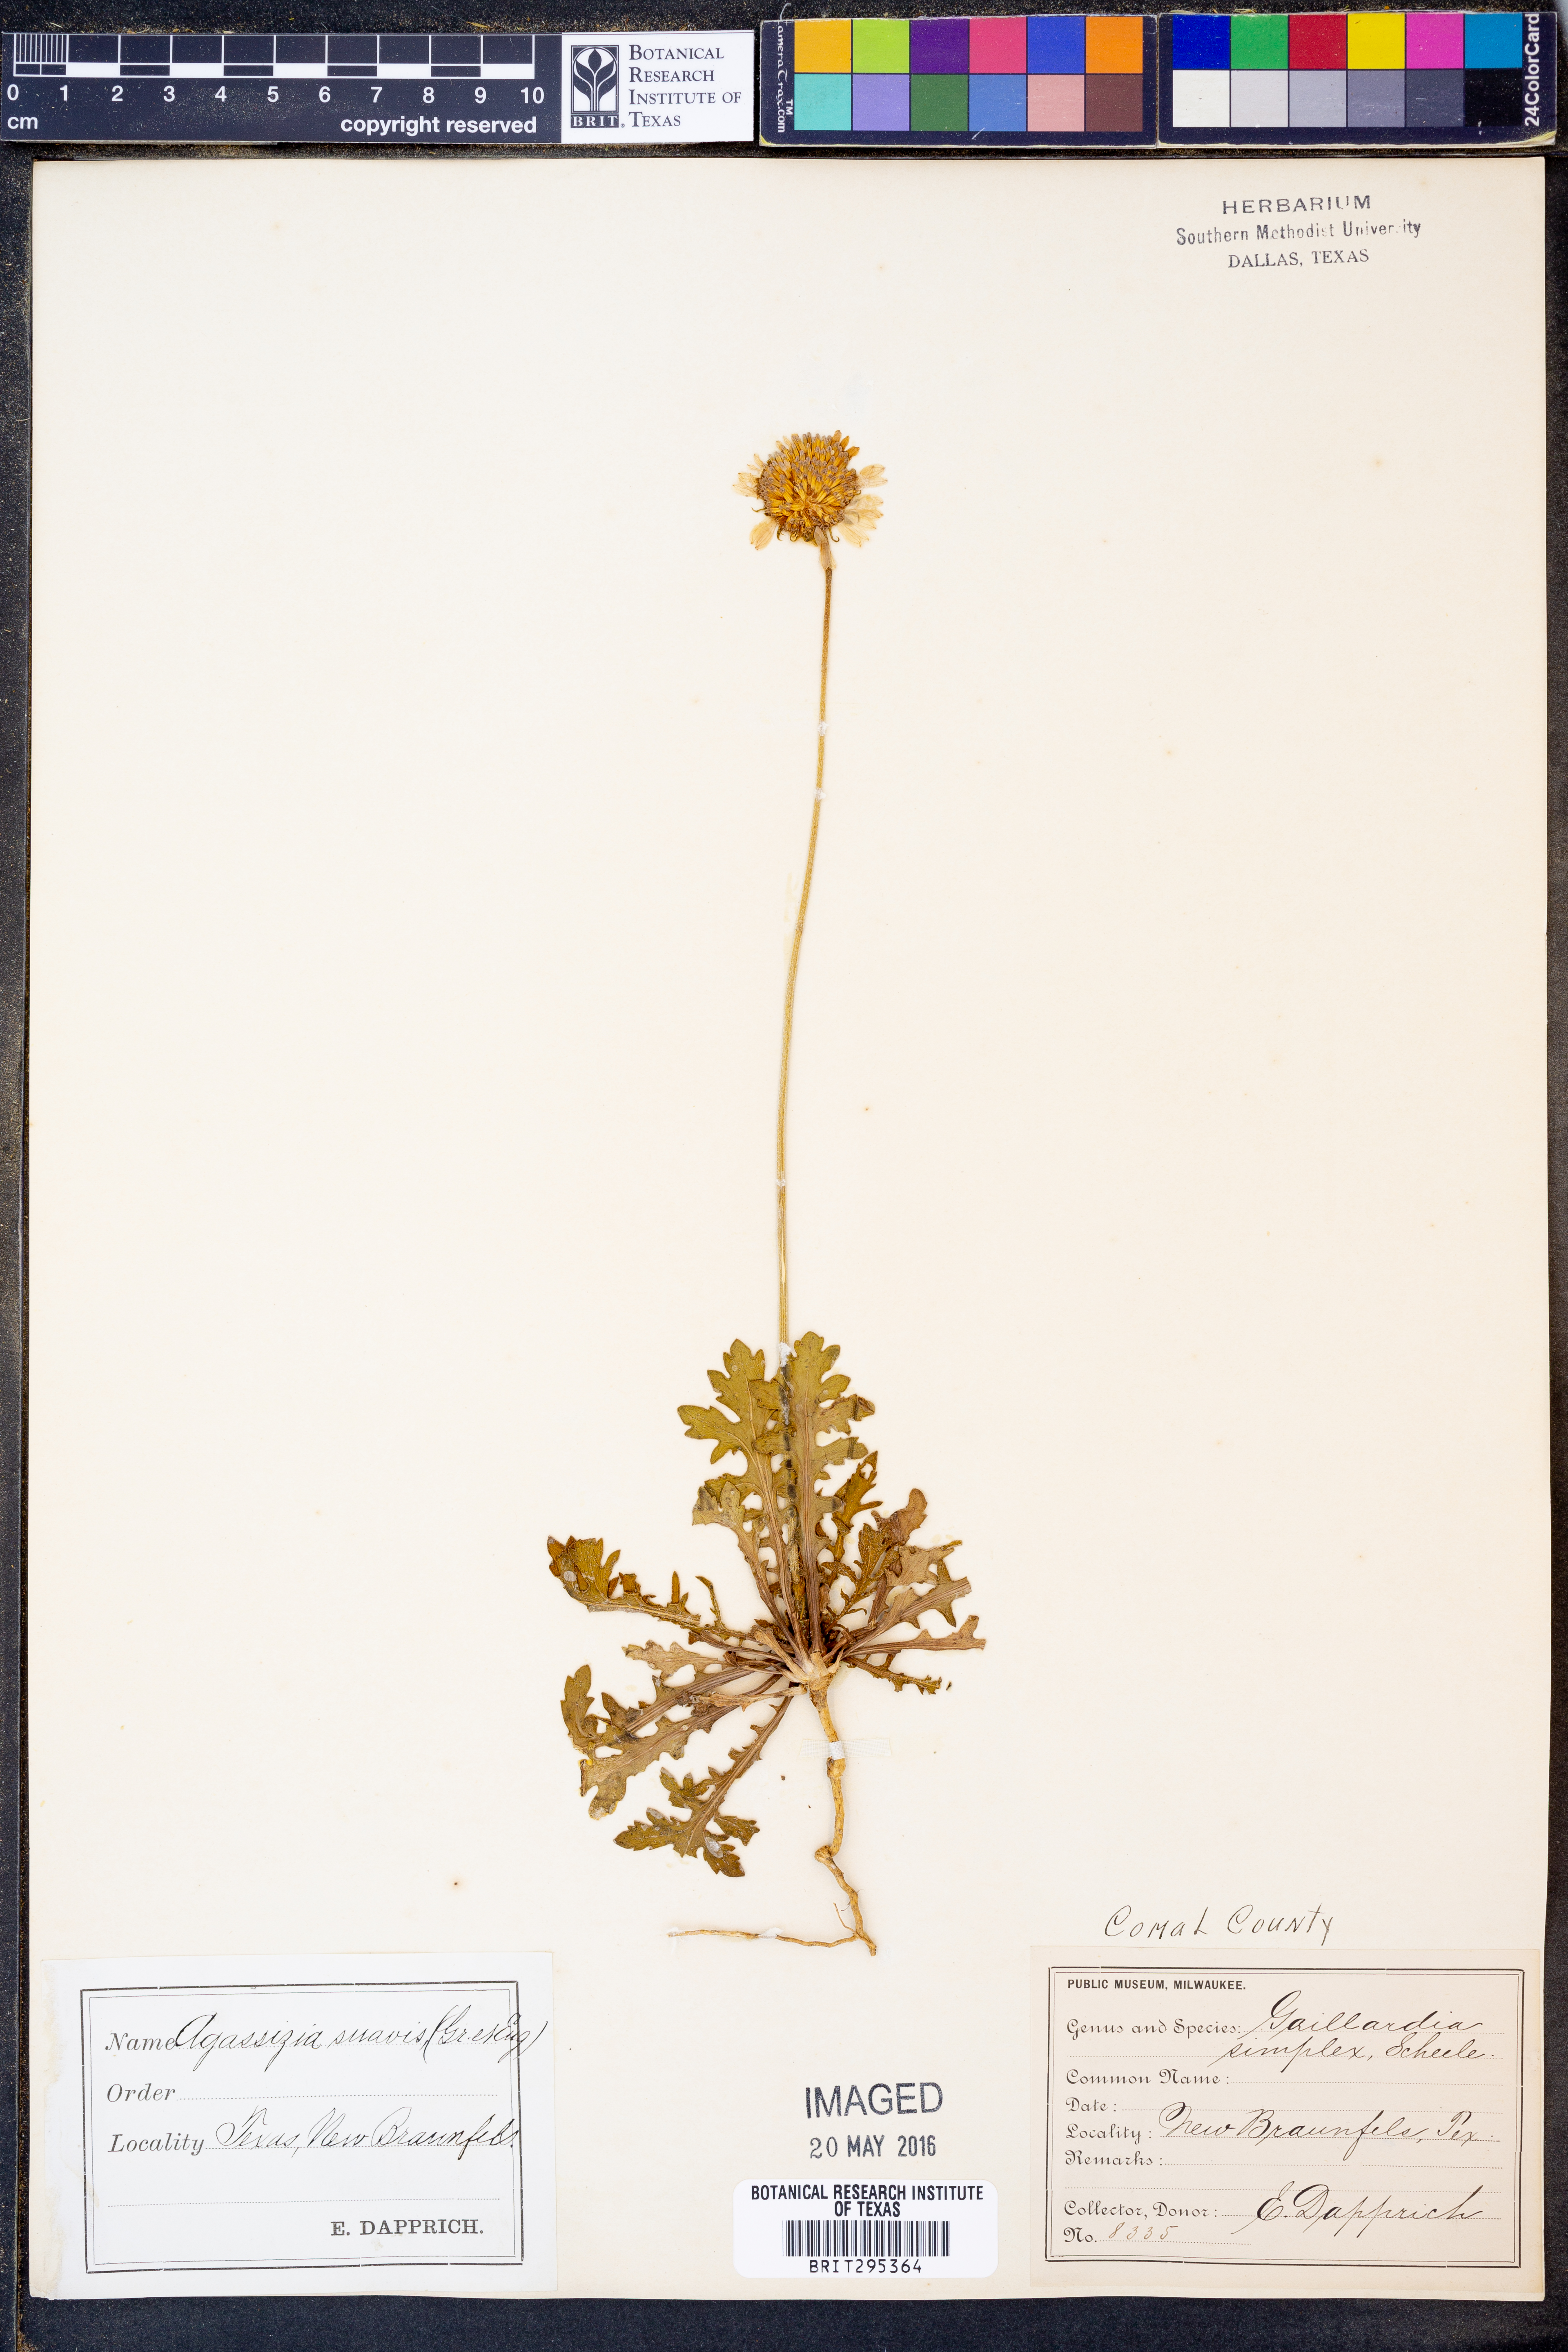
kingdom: Plantae
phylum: Tracheophyta
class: Magnoliopsida
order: Asterales
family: Asteraceae
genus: Gaillardia
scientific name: Gaillardia suavis
